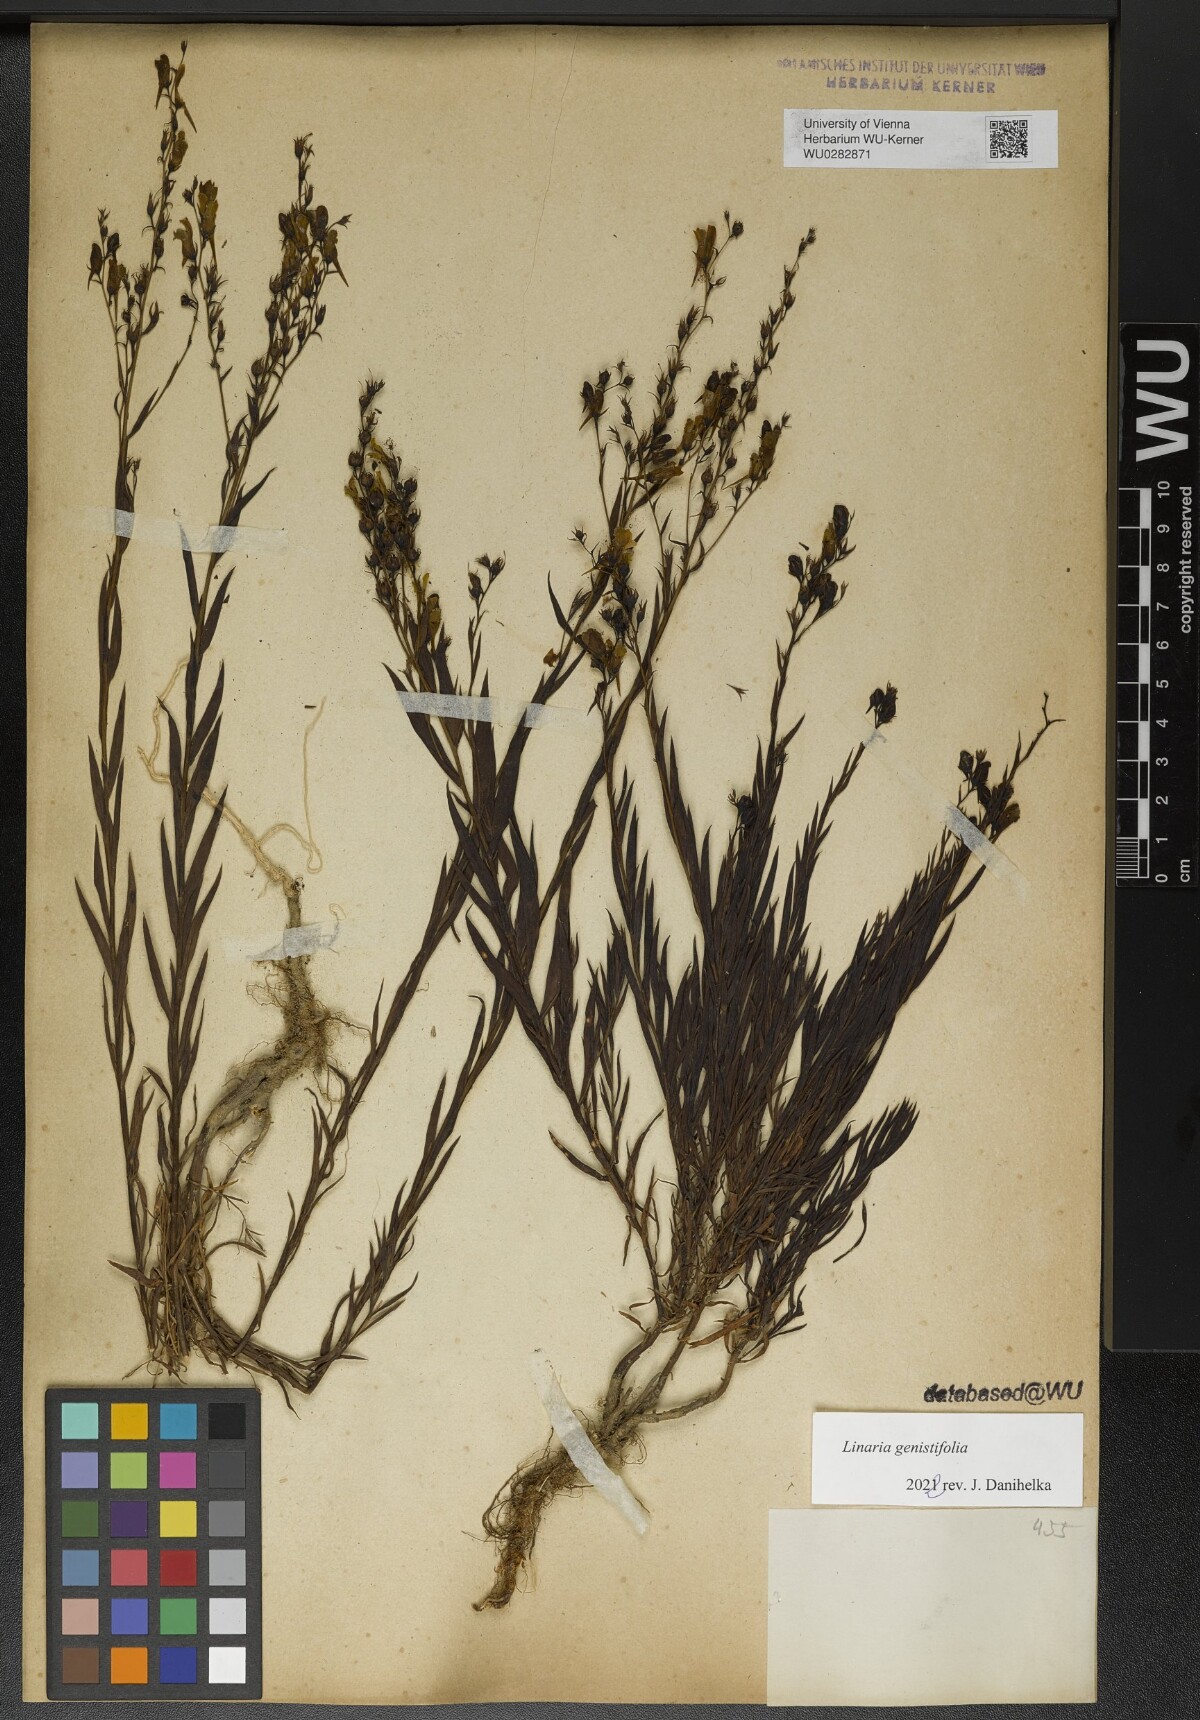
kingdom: Plantae
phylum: Tracheophyta
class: Magnoliopsida
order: Lamiales
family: Plantaginaceae
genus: Linaria
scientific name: Linaria genistifolia
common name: Broomleaf toadflax
